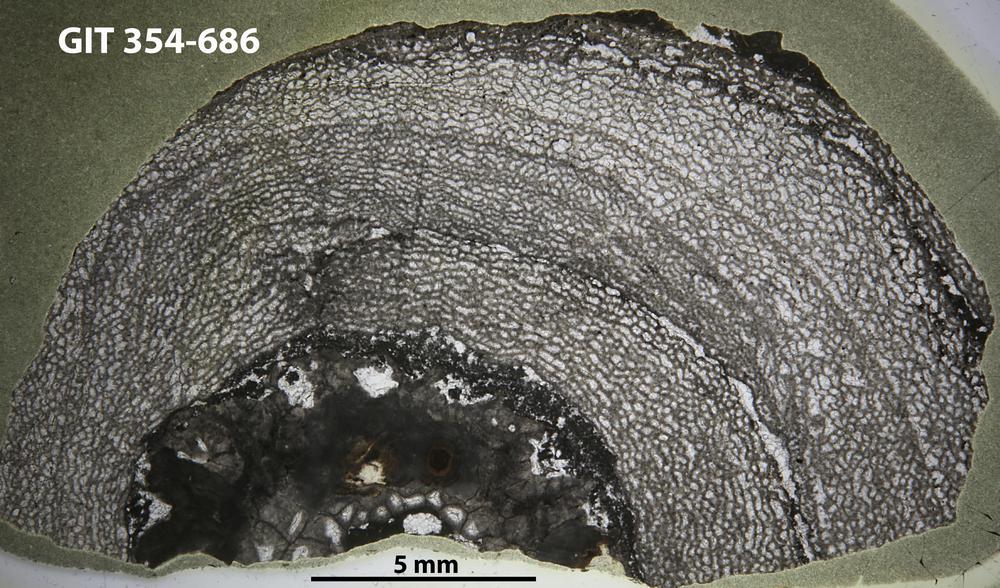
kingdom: Animalia
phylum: Porifera
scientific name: Porifera
